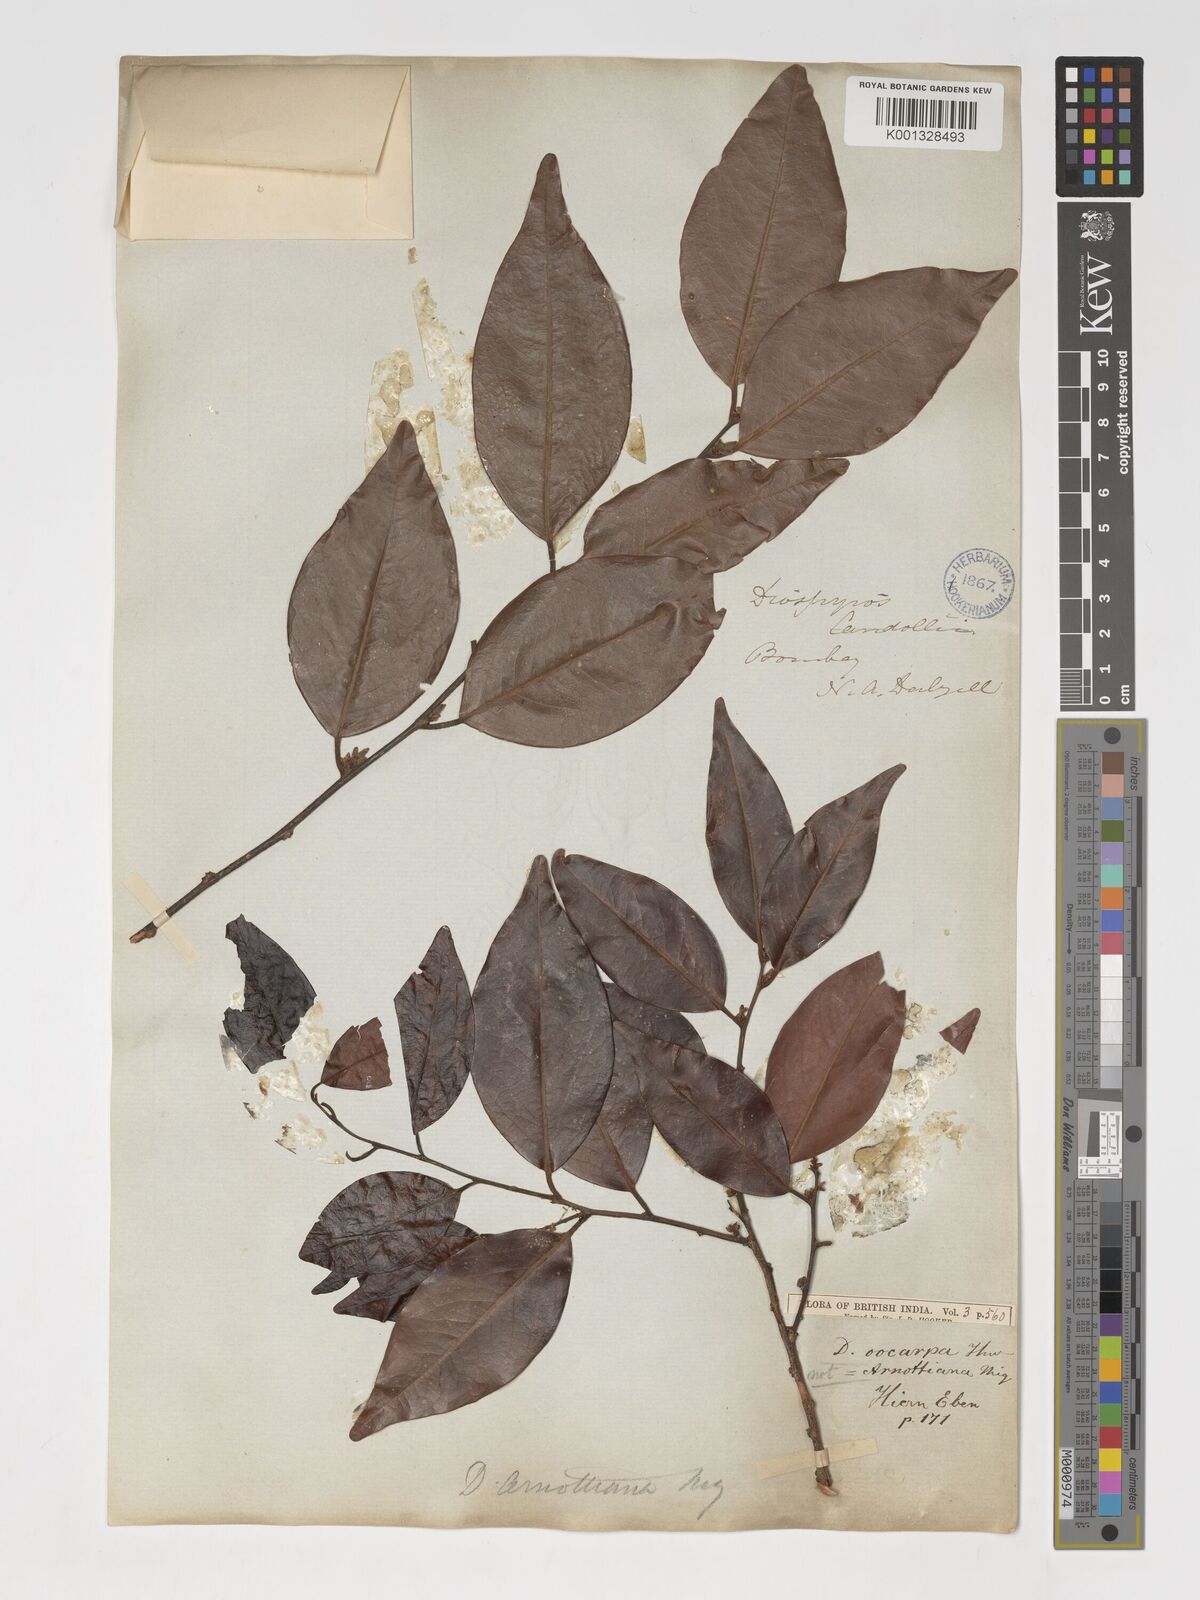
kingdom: Plantae
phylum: Tracheophyta
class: Magnoliopsida
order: Ericales
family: Ebenaceae
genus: Diospyros
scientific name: Diospyros oocarpa
